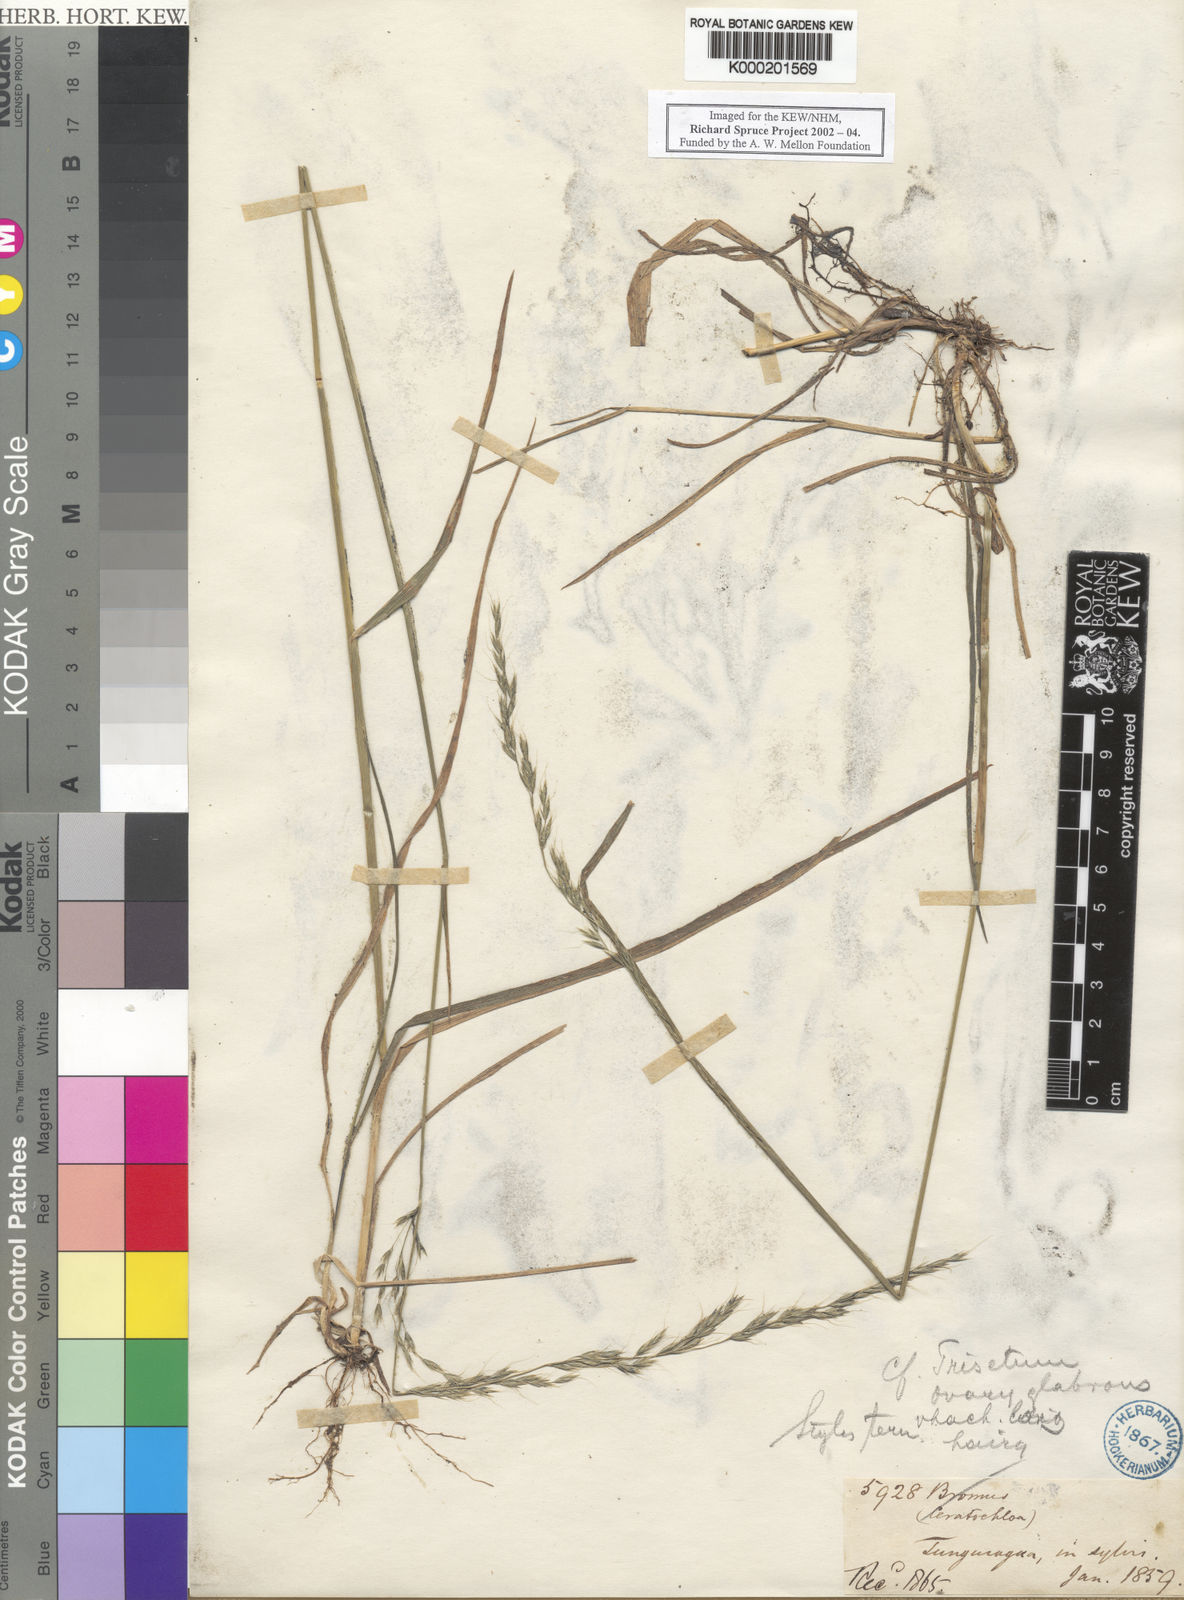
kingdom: Plantae
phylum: Tracheophyta
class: Liliopsida
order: Poales
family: Poaceae
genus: Peyritschia
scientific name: Peyritschia irazuensis
